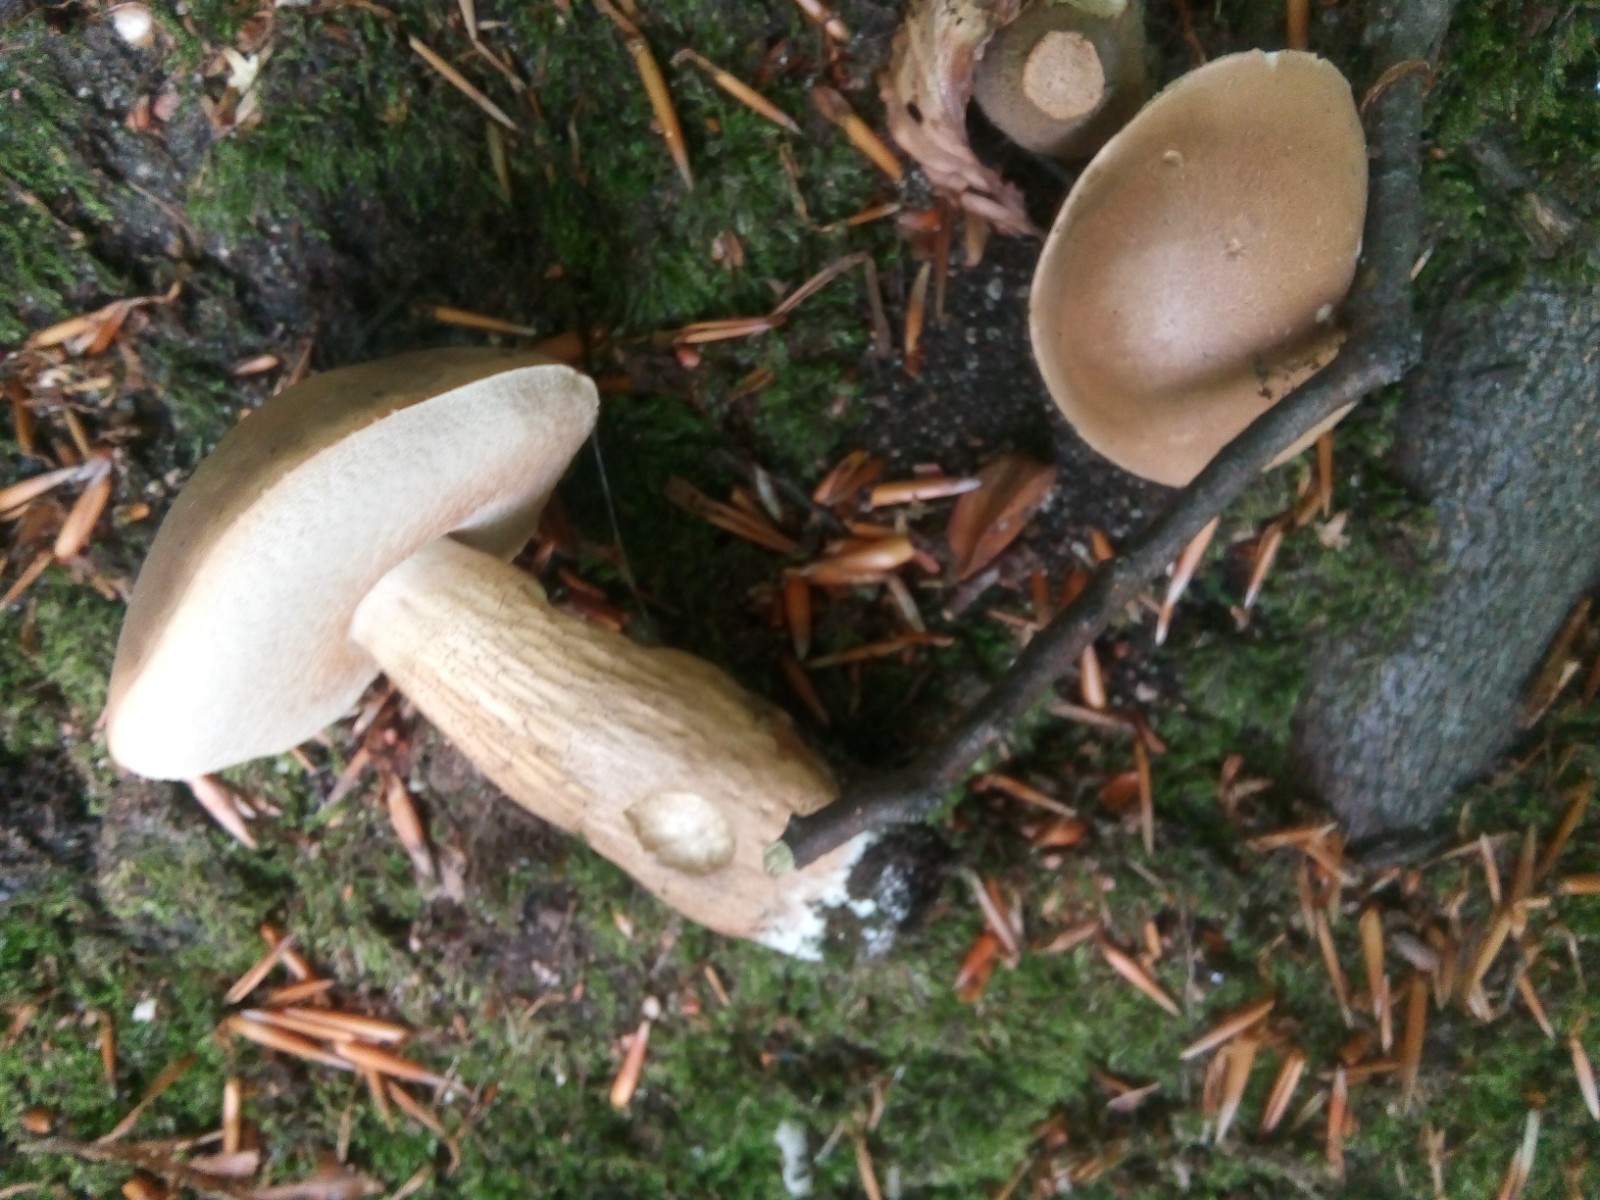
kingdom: Fungi
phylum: Basidiomycota
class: Agaricomycetes
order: Boletales
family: Boletaceae
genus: Tylopilus
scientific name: Tylopilus felleus
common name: galderørhat
